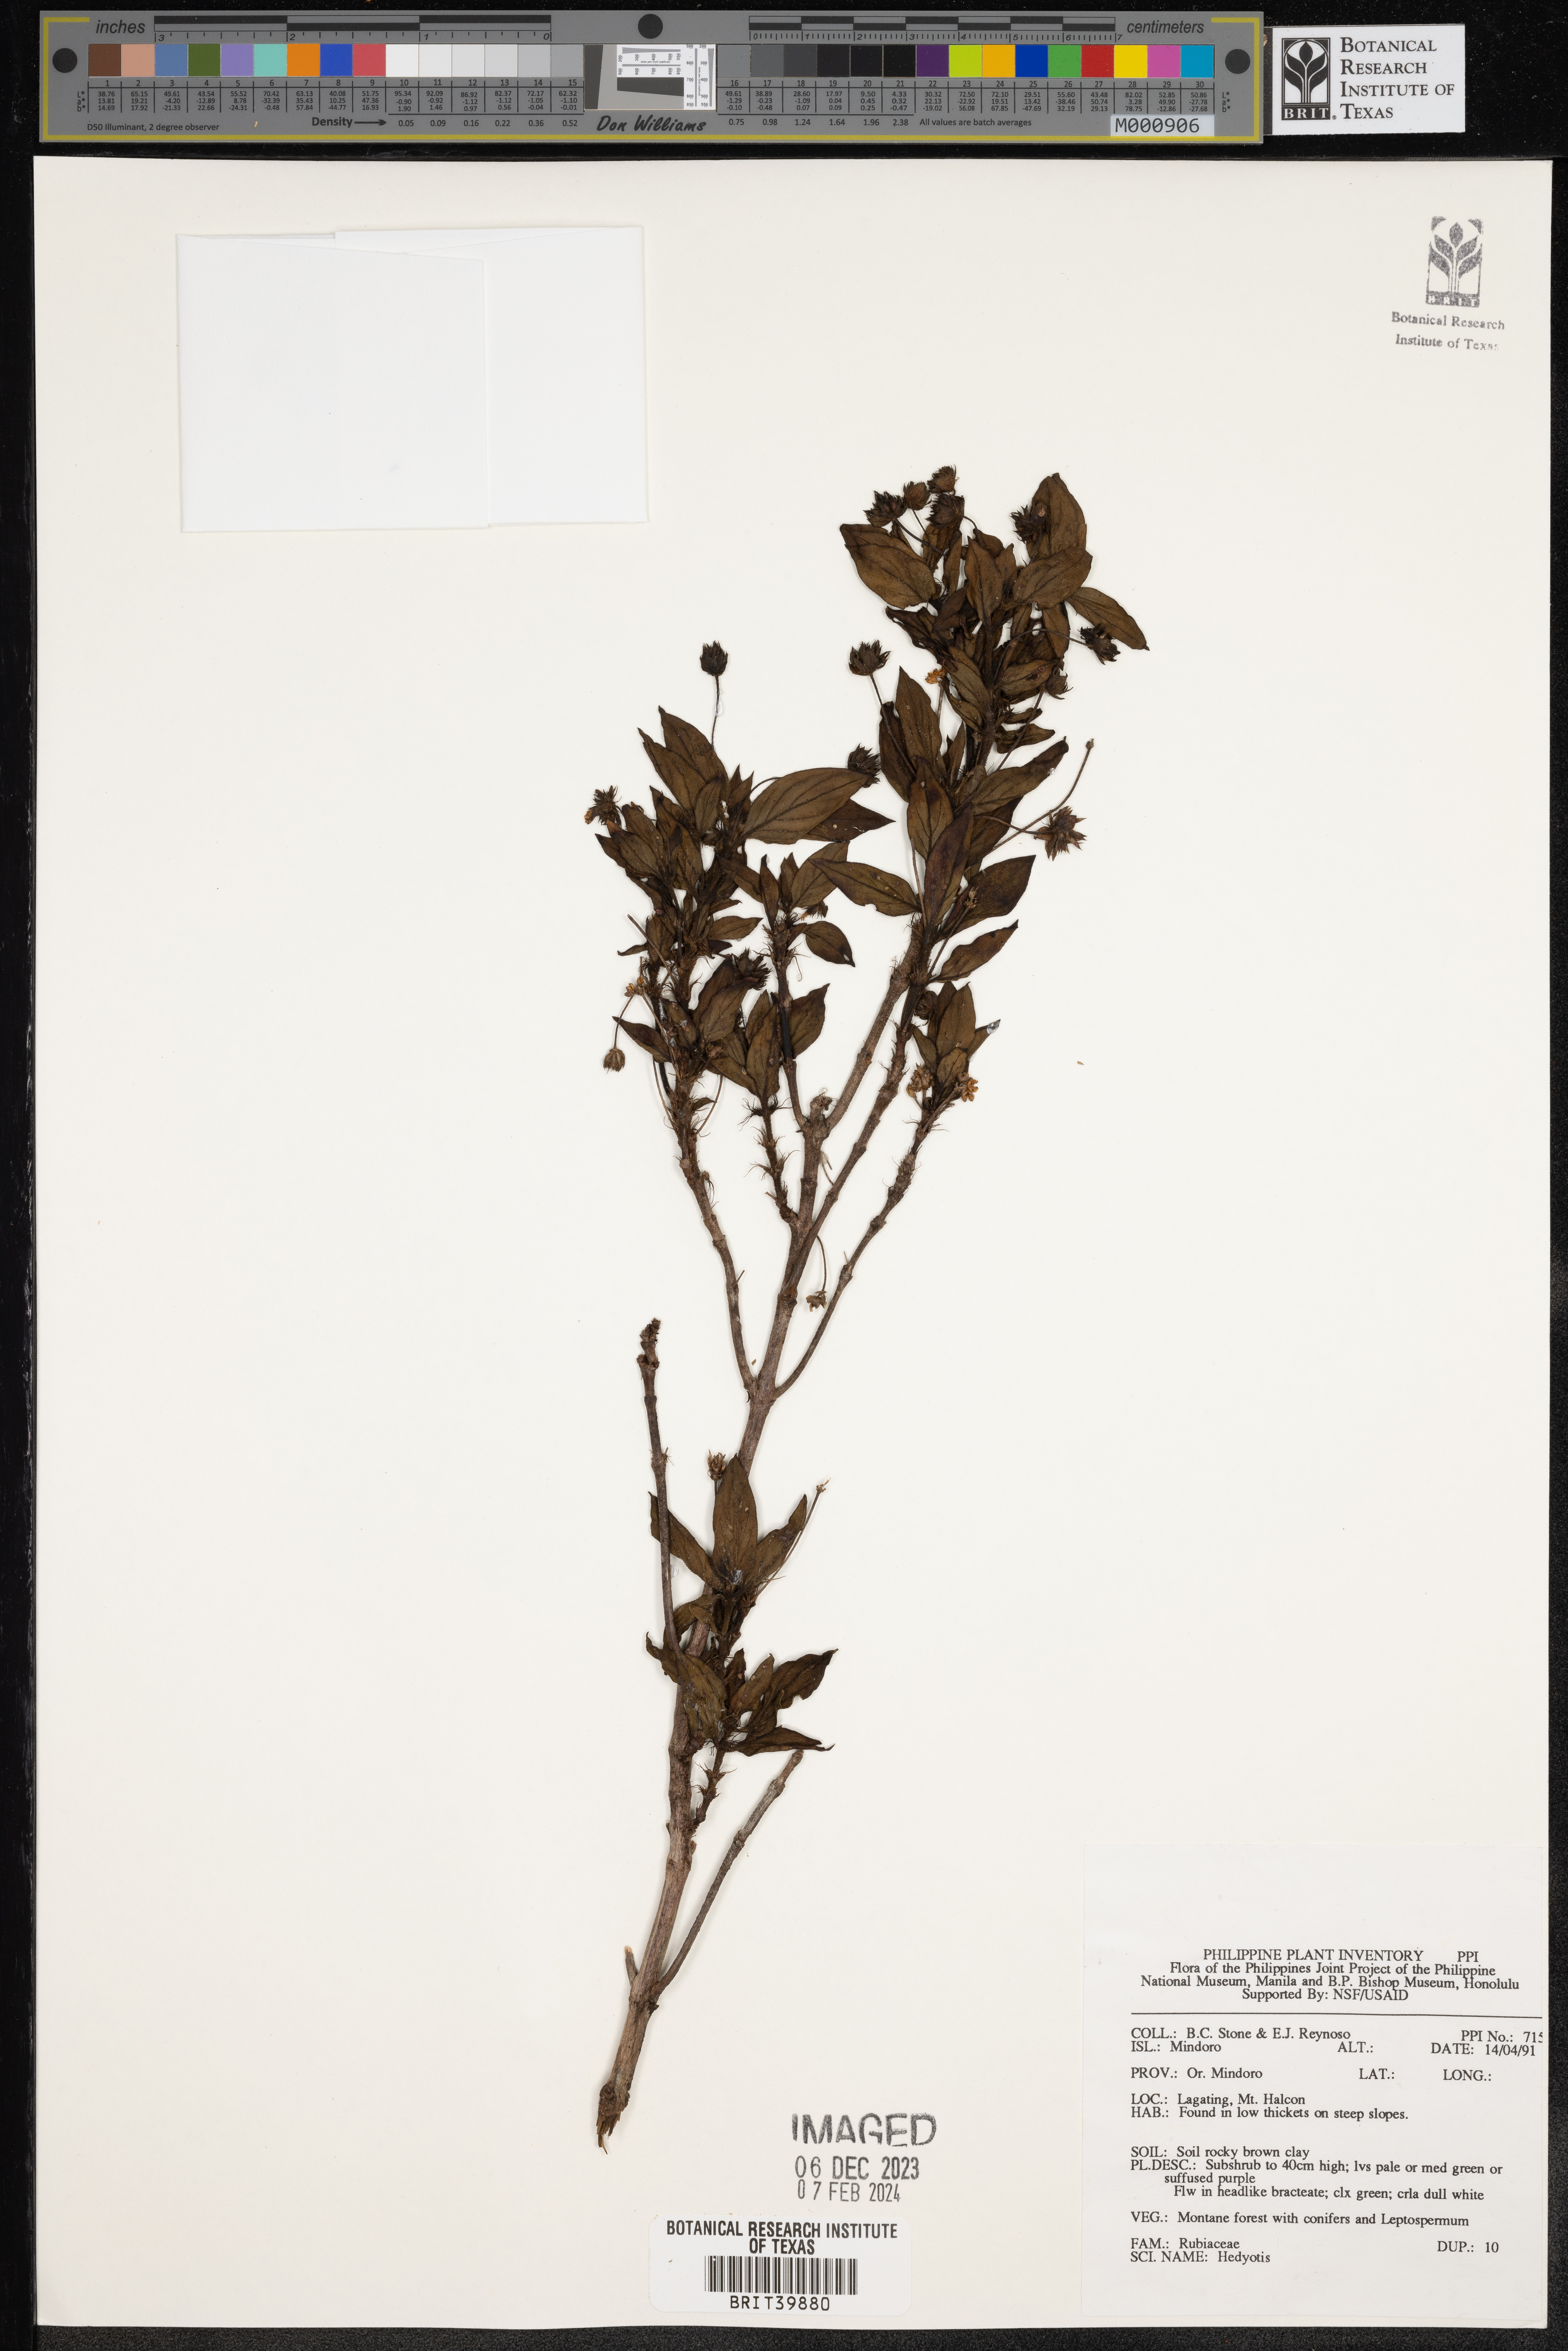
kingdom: Plantae
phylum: Tracheophyta
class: Magnoliopsida
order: Gentianales
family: Rubiaceae
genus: Hedyotis
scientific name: Hedyotis
